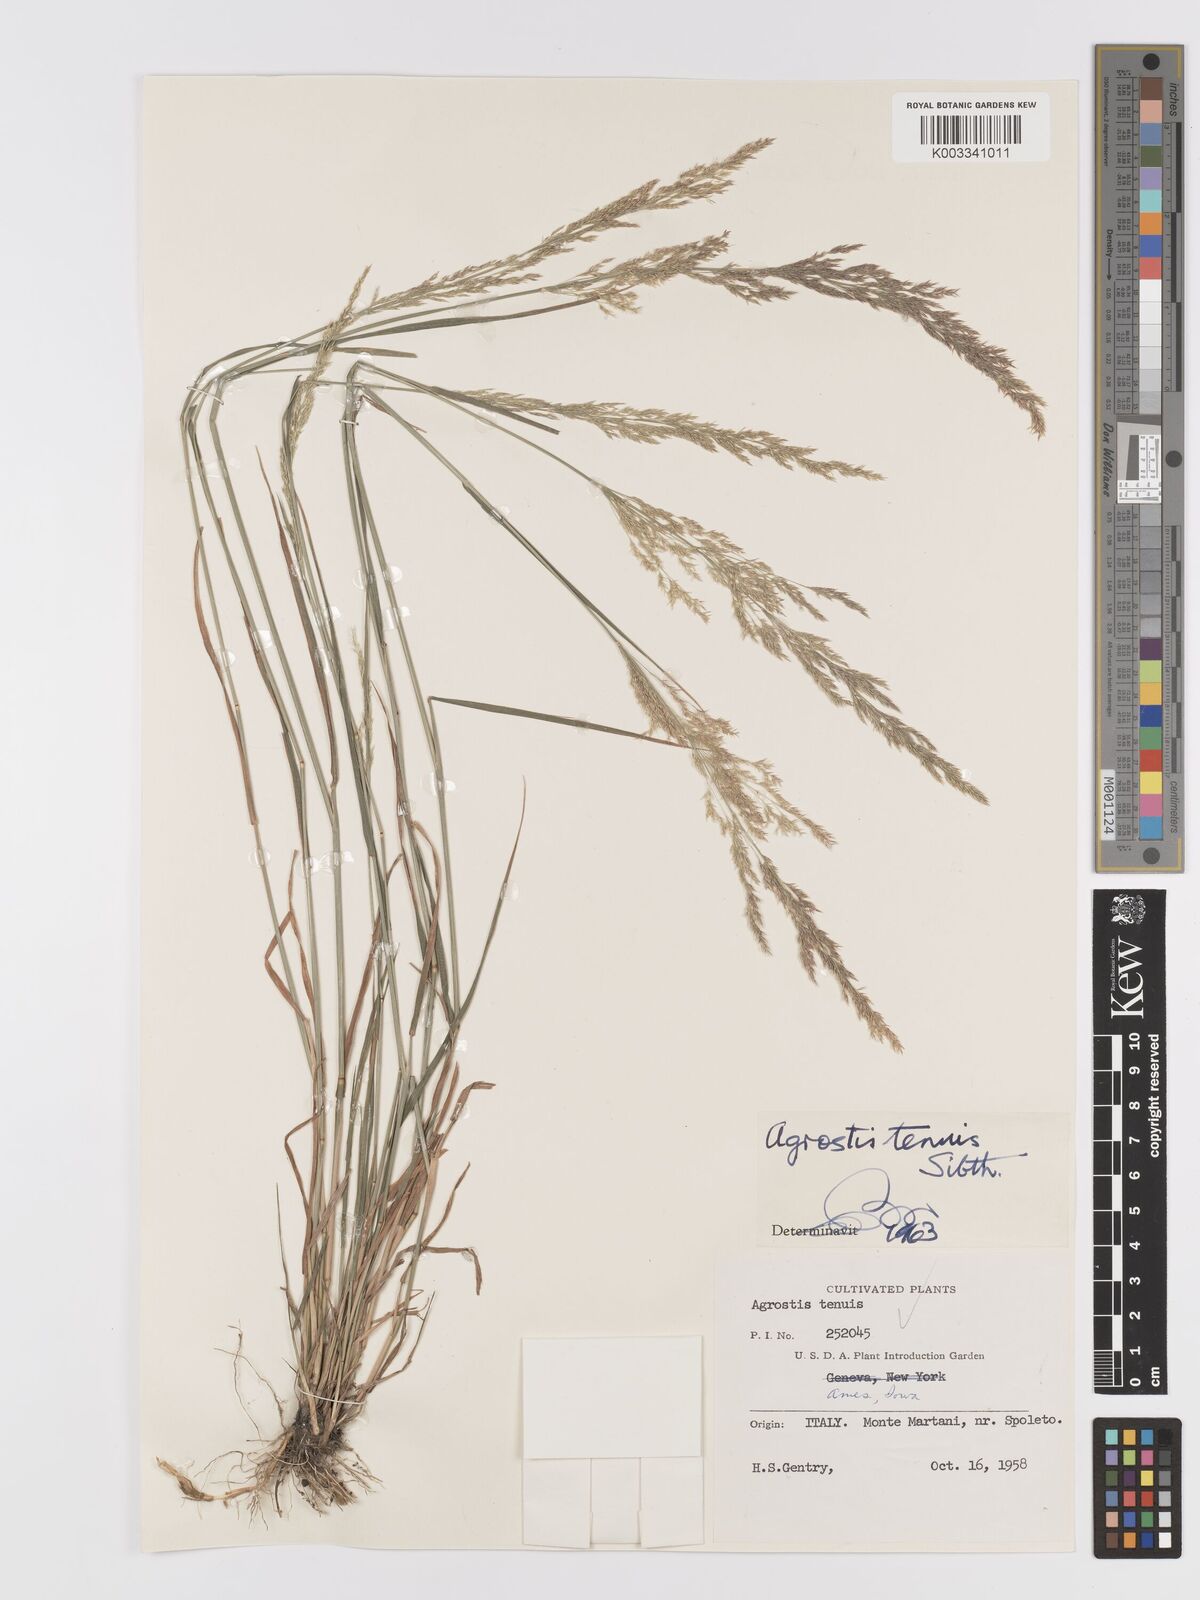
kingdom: Plantae
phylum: Tracheophyta
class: Liliopsida
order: Poales
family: Poaceae
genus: Agrostis
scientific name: Agrostis capillaris
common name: Colonial bentgrass
